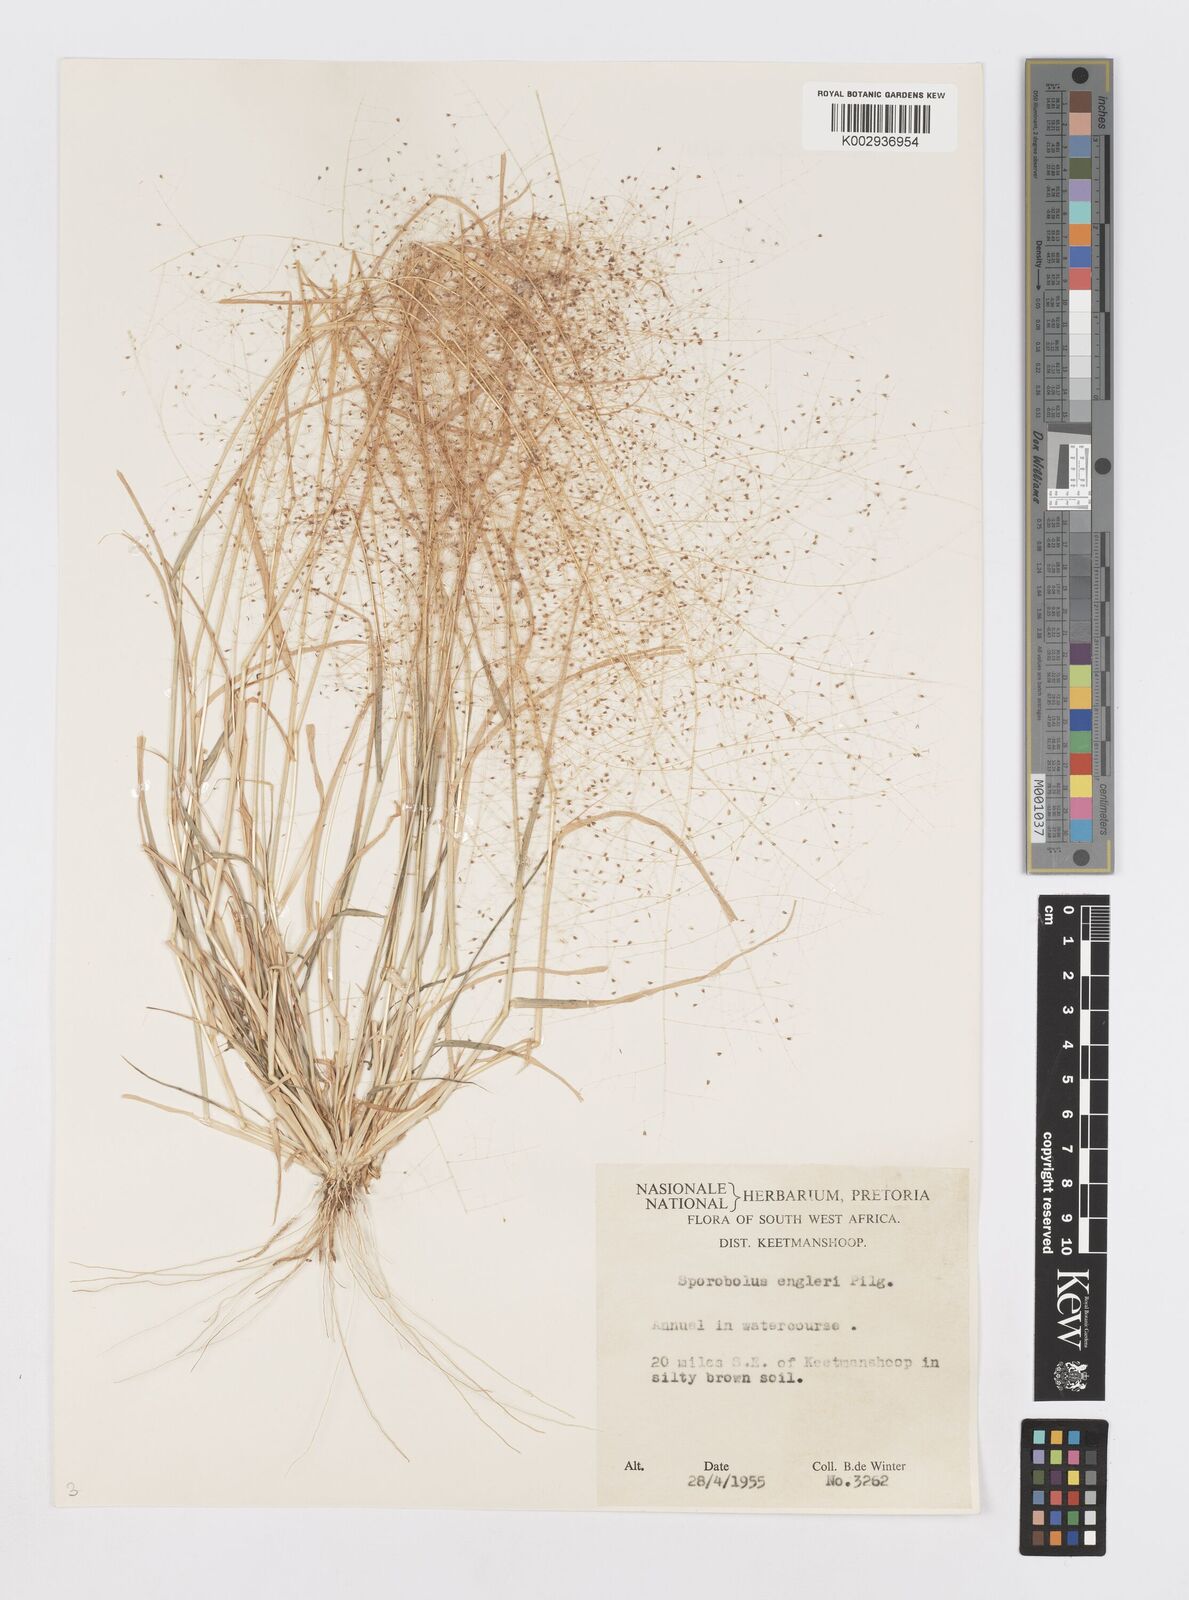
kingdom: Plantae
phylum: Tracheophyta
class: Liliopsida
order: Poales
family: Poaceae
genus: Sporobolus
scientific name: Sporobolus engleri
